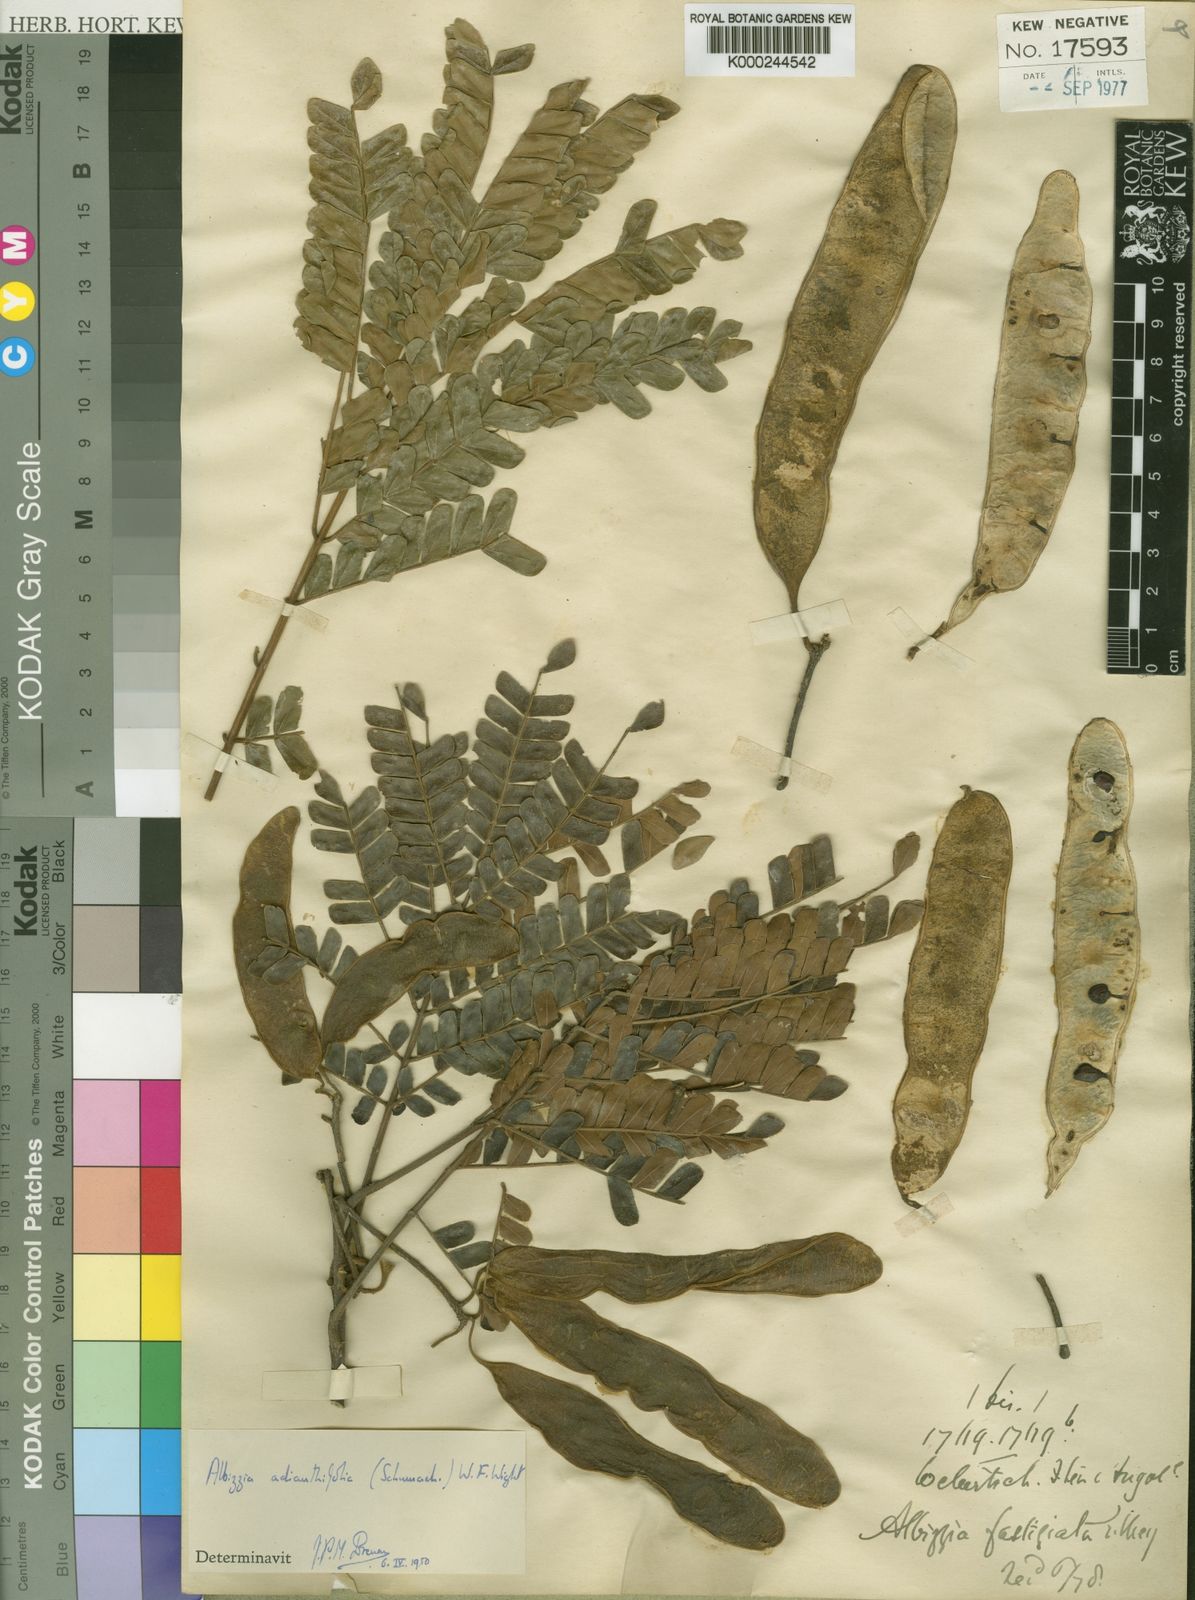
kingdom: Plantae
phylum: Tracheophyta
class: Magnoliopsida
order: Fabales
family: Fabaceae
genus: Albizia
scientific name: Albizia adianthifolia
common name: West african albizia
